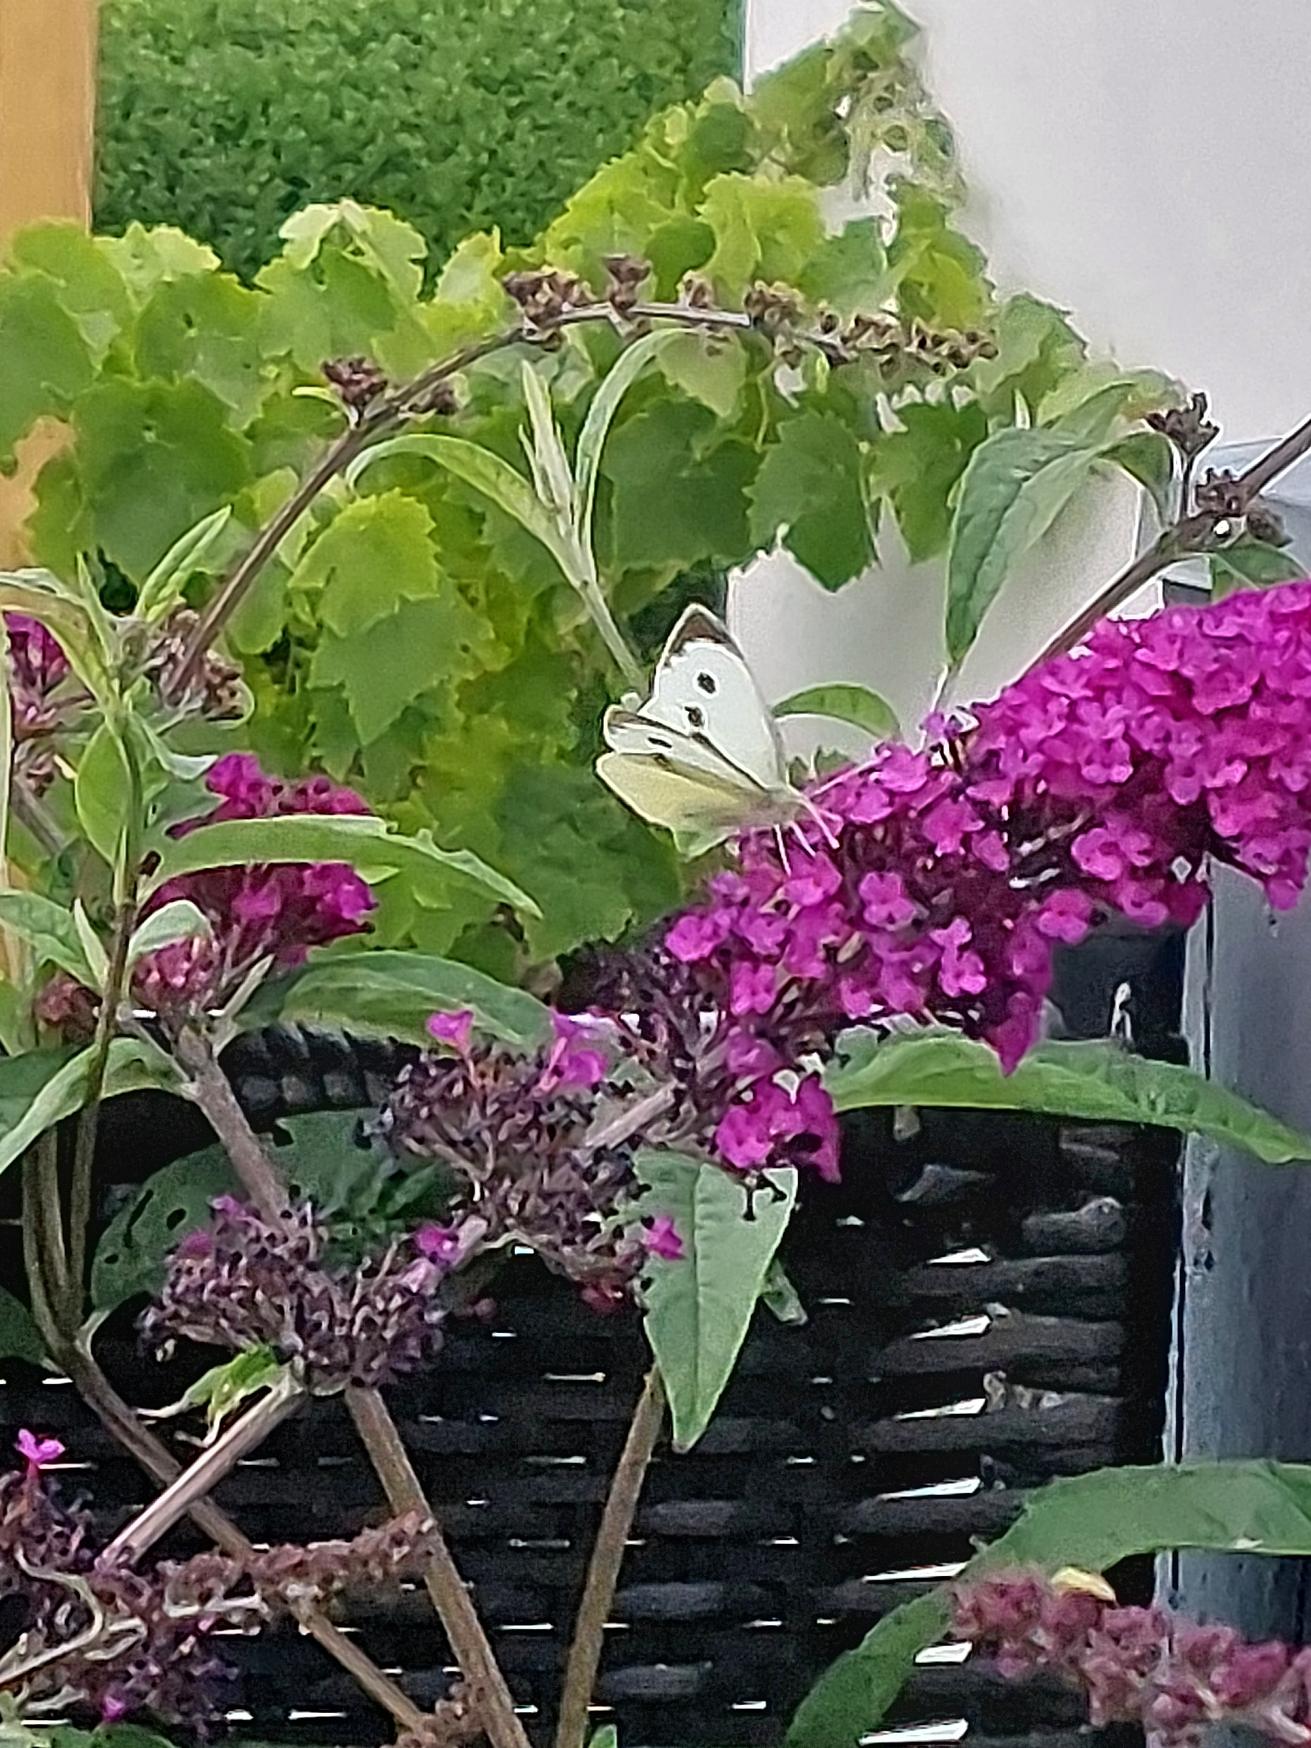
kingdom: Animalia
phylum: Arthropoda
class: Insecta
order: Lepidoptera
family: Pieridae
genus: Pieris
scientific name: Pieris brassicae
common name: Stor kålsommerfugl
